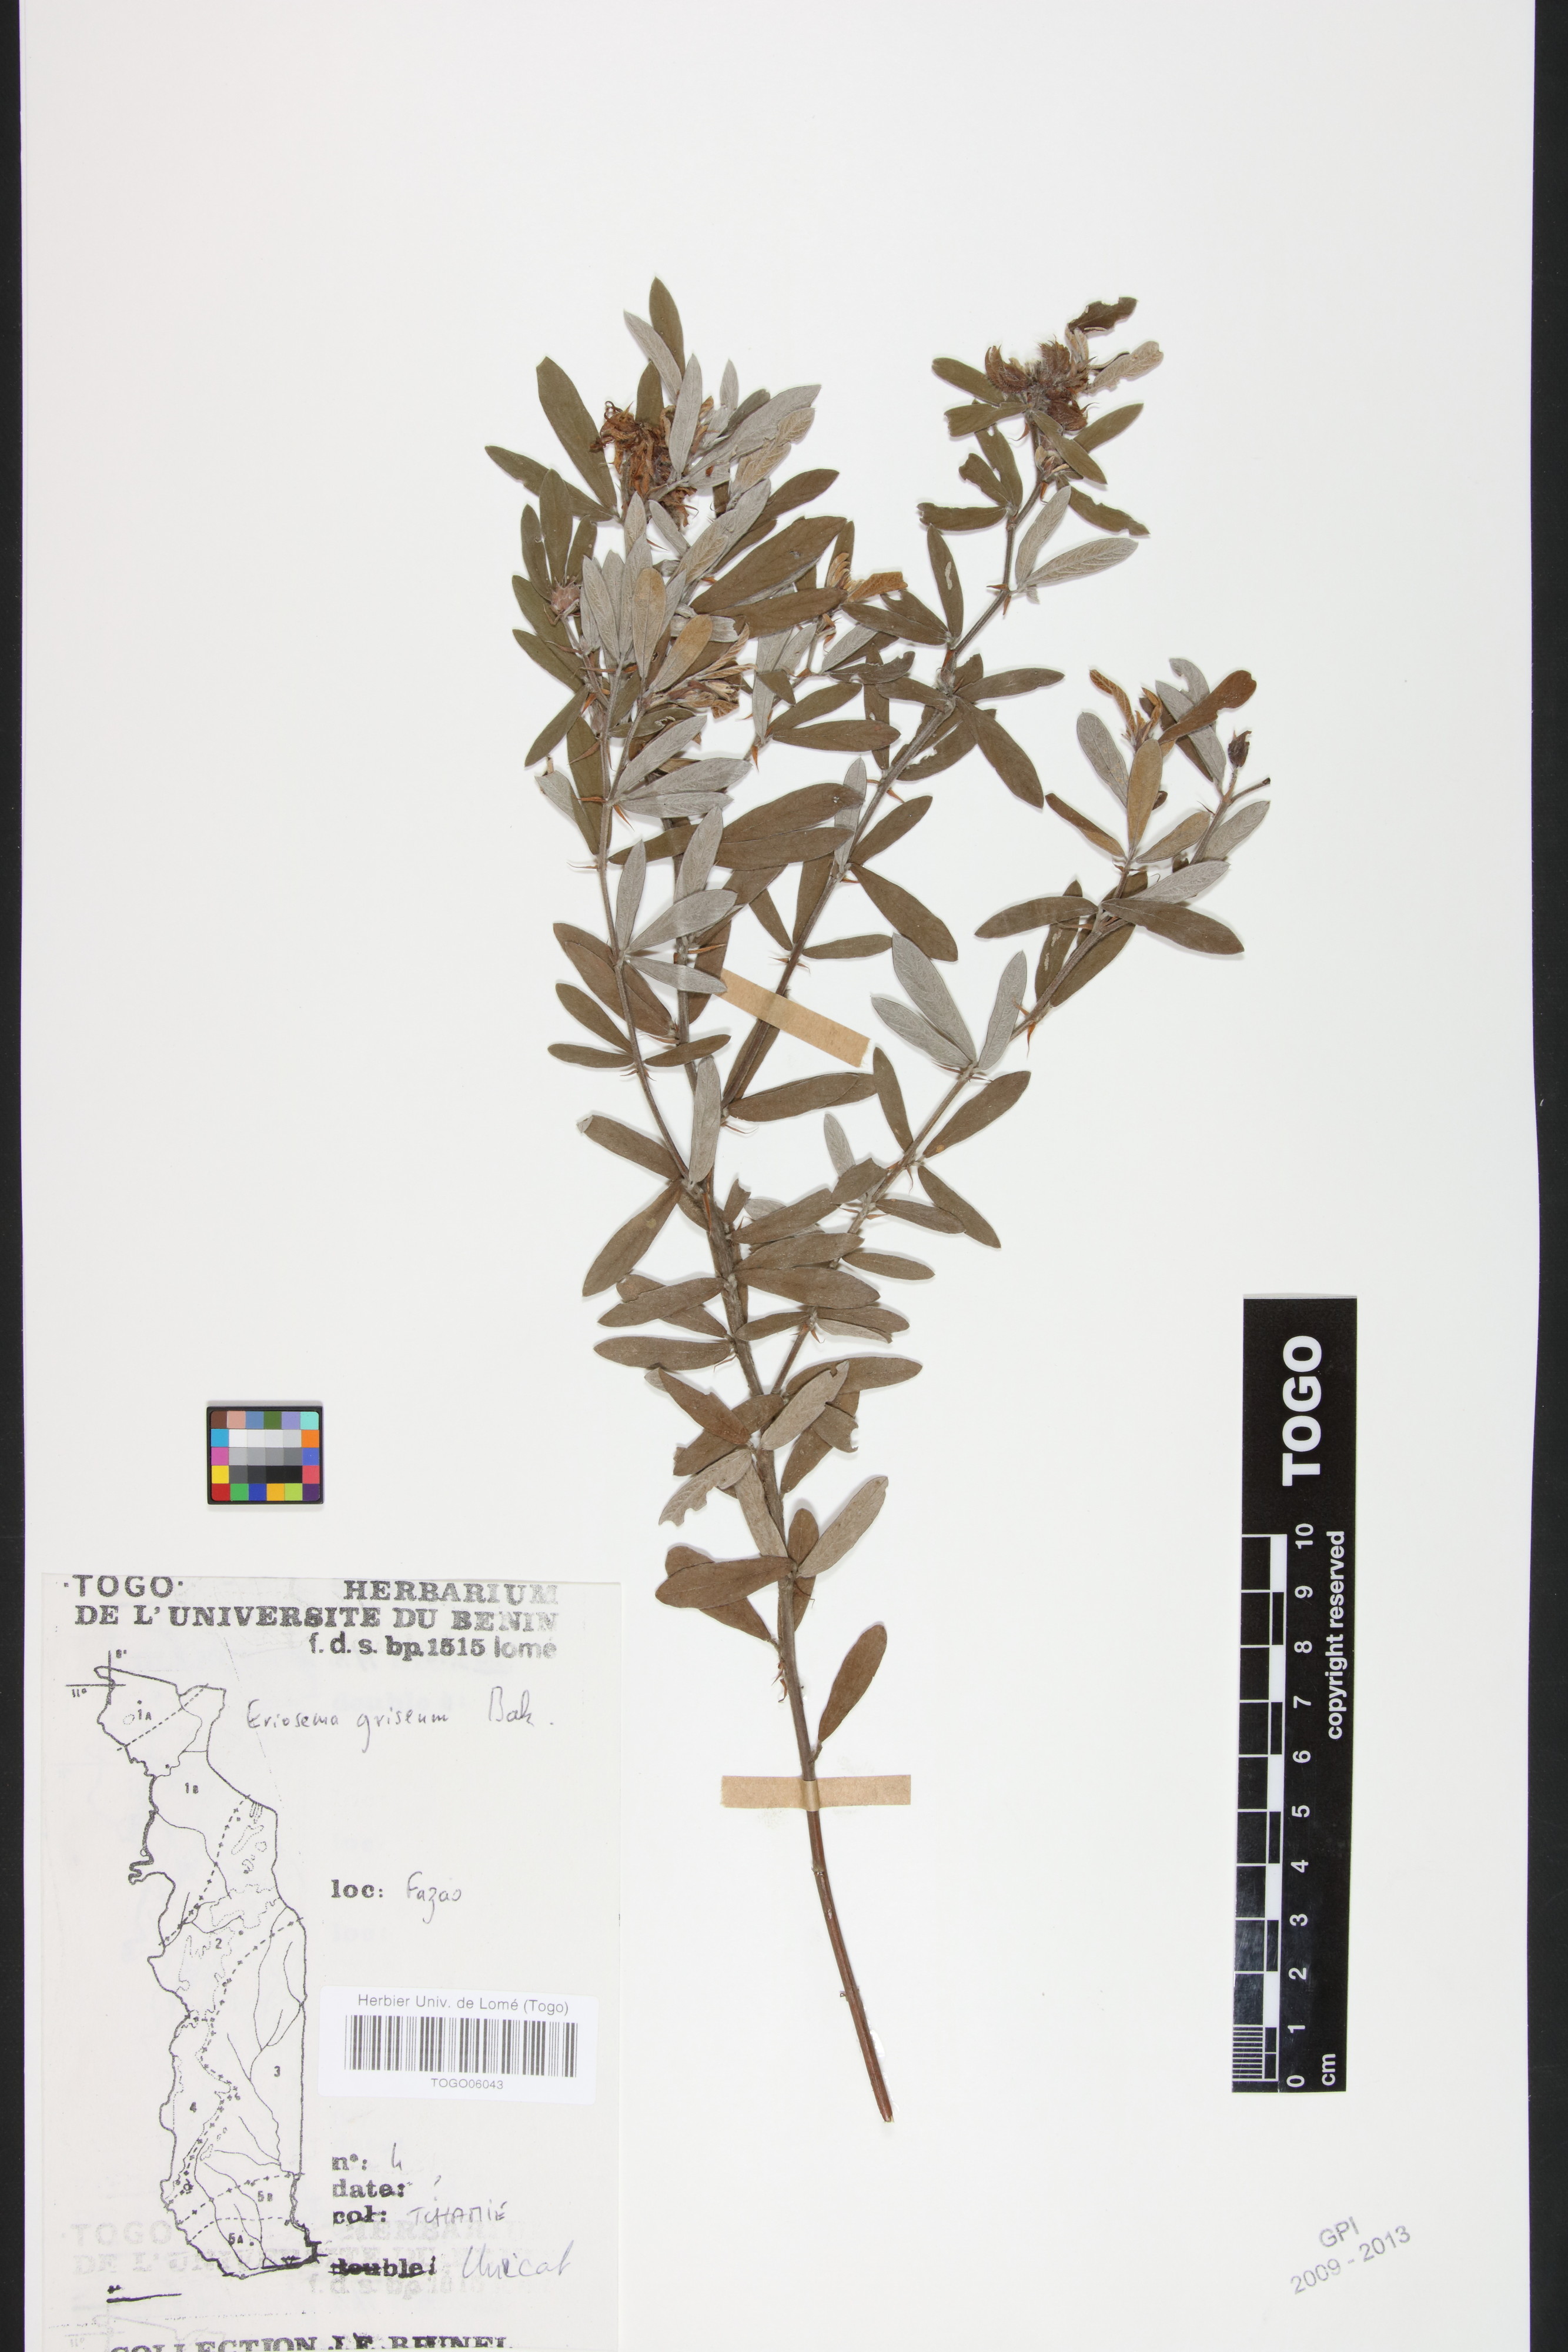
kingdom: Plantae
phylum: Tracheophyta
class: Magnoliopsida
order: Fabales
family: Fabaceae
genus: Eriosema
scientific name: Eriosema griseum
